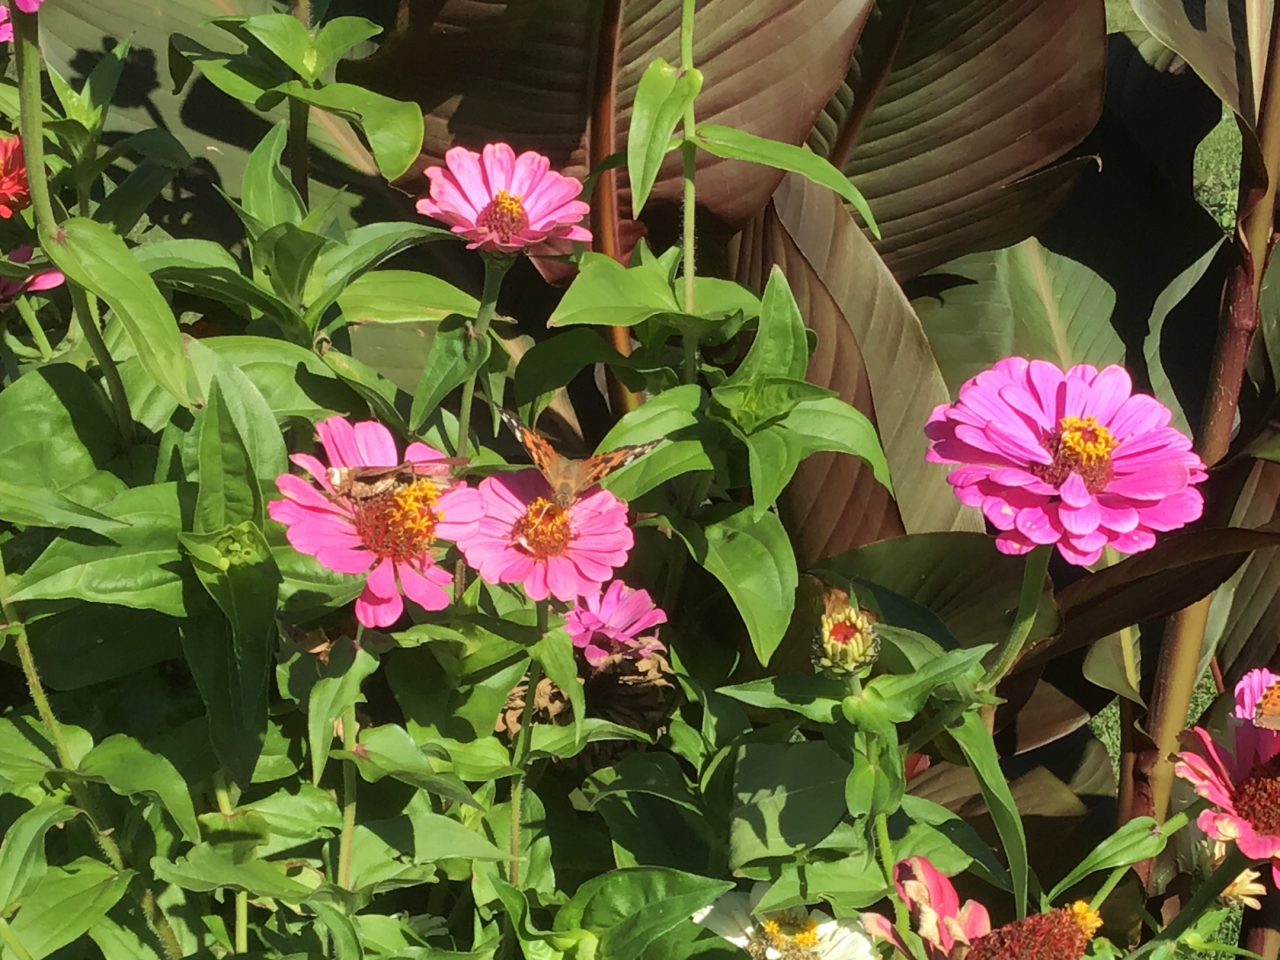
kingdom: Animalia
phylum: Arthropoda
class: Insecta
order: Lepidoptera
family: Nymphalidae
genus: Vanessa
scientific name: Vanessa cardui
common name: Painted Lady
